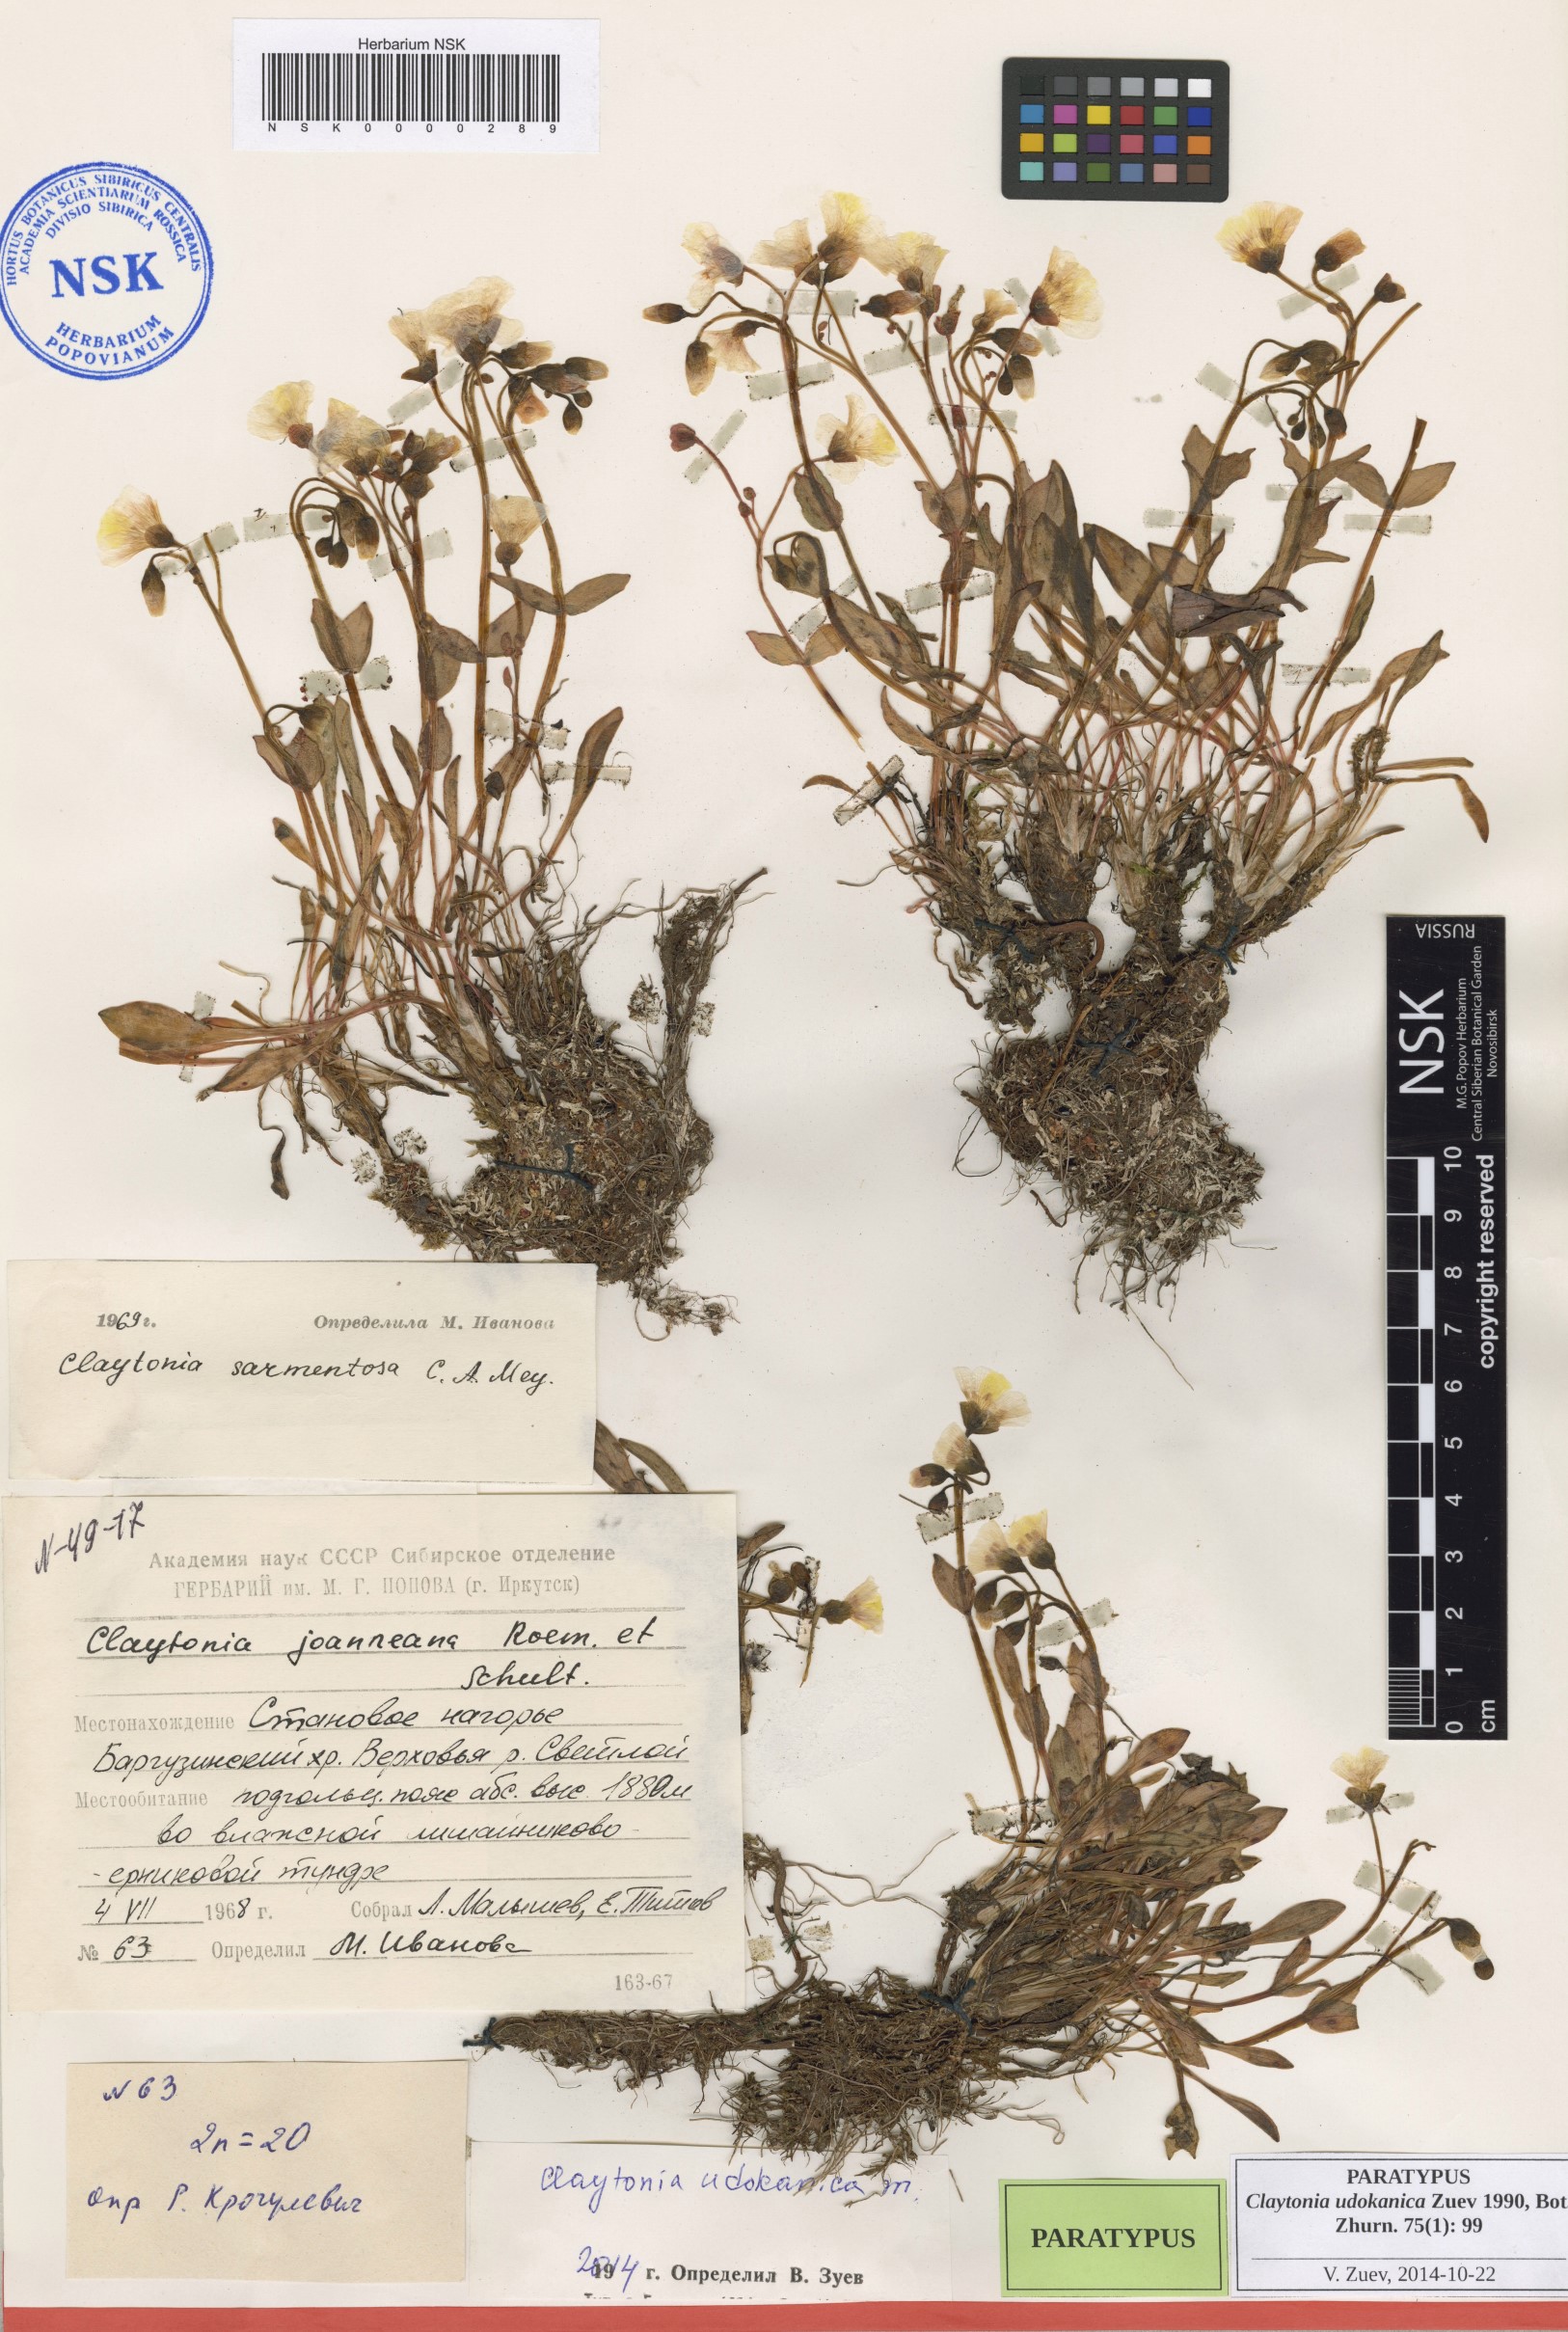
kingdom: Plantae
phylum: Tracheophyta
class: Magnoliopsida
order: Caryophyllales
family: Montiaceae
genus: Claytonia
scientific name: Claytonia udokanica
